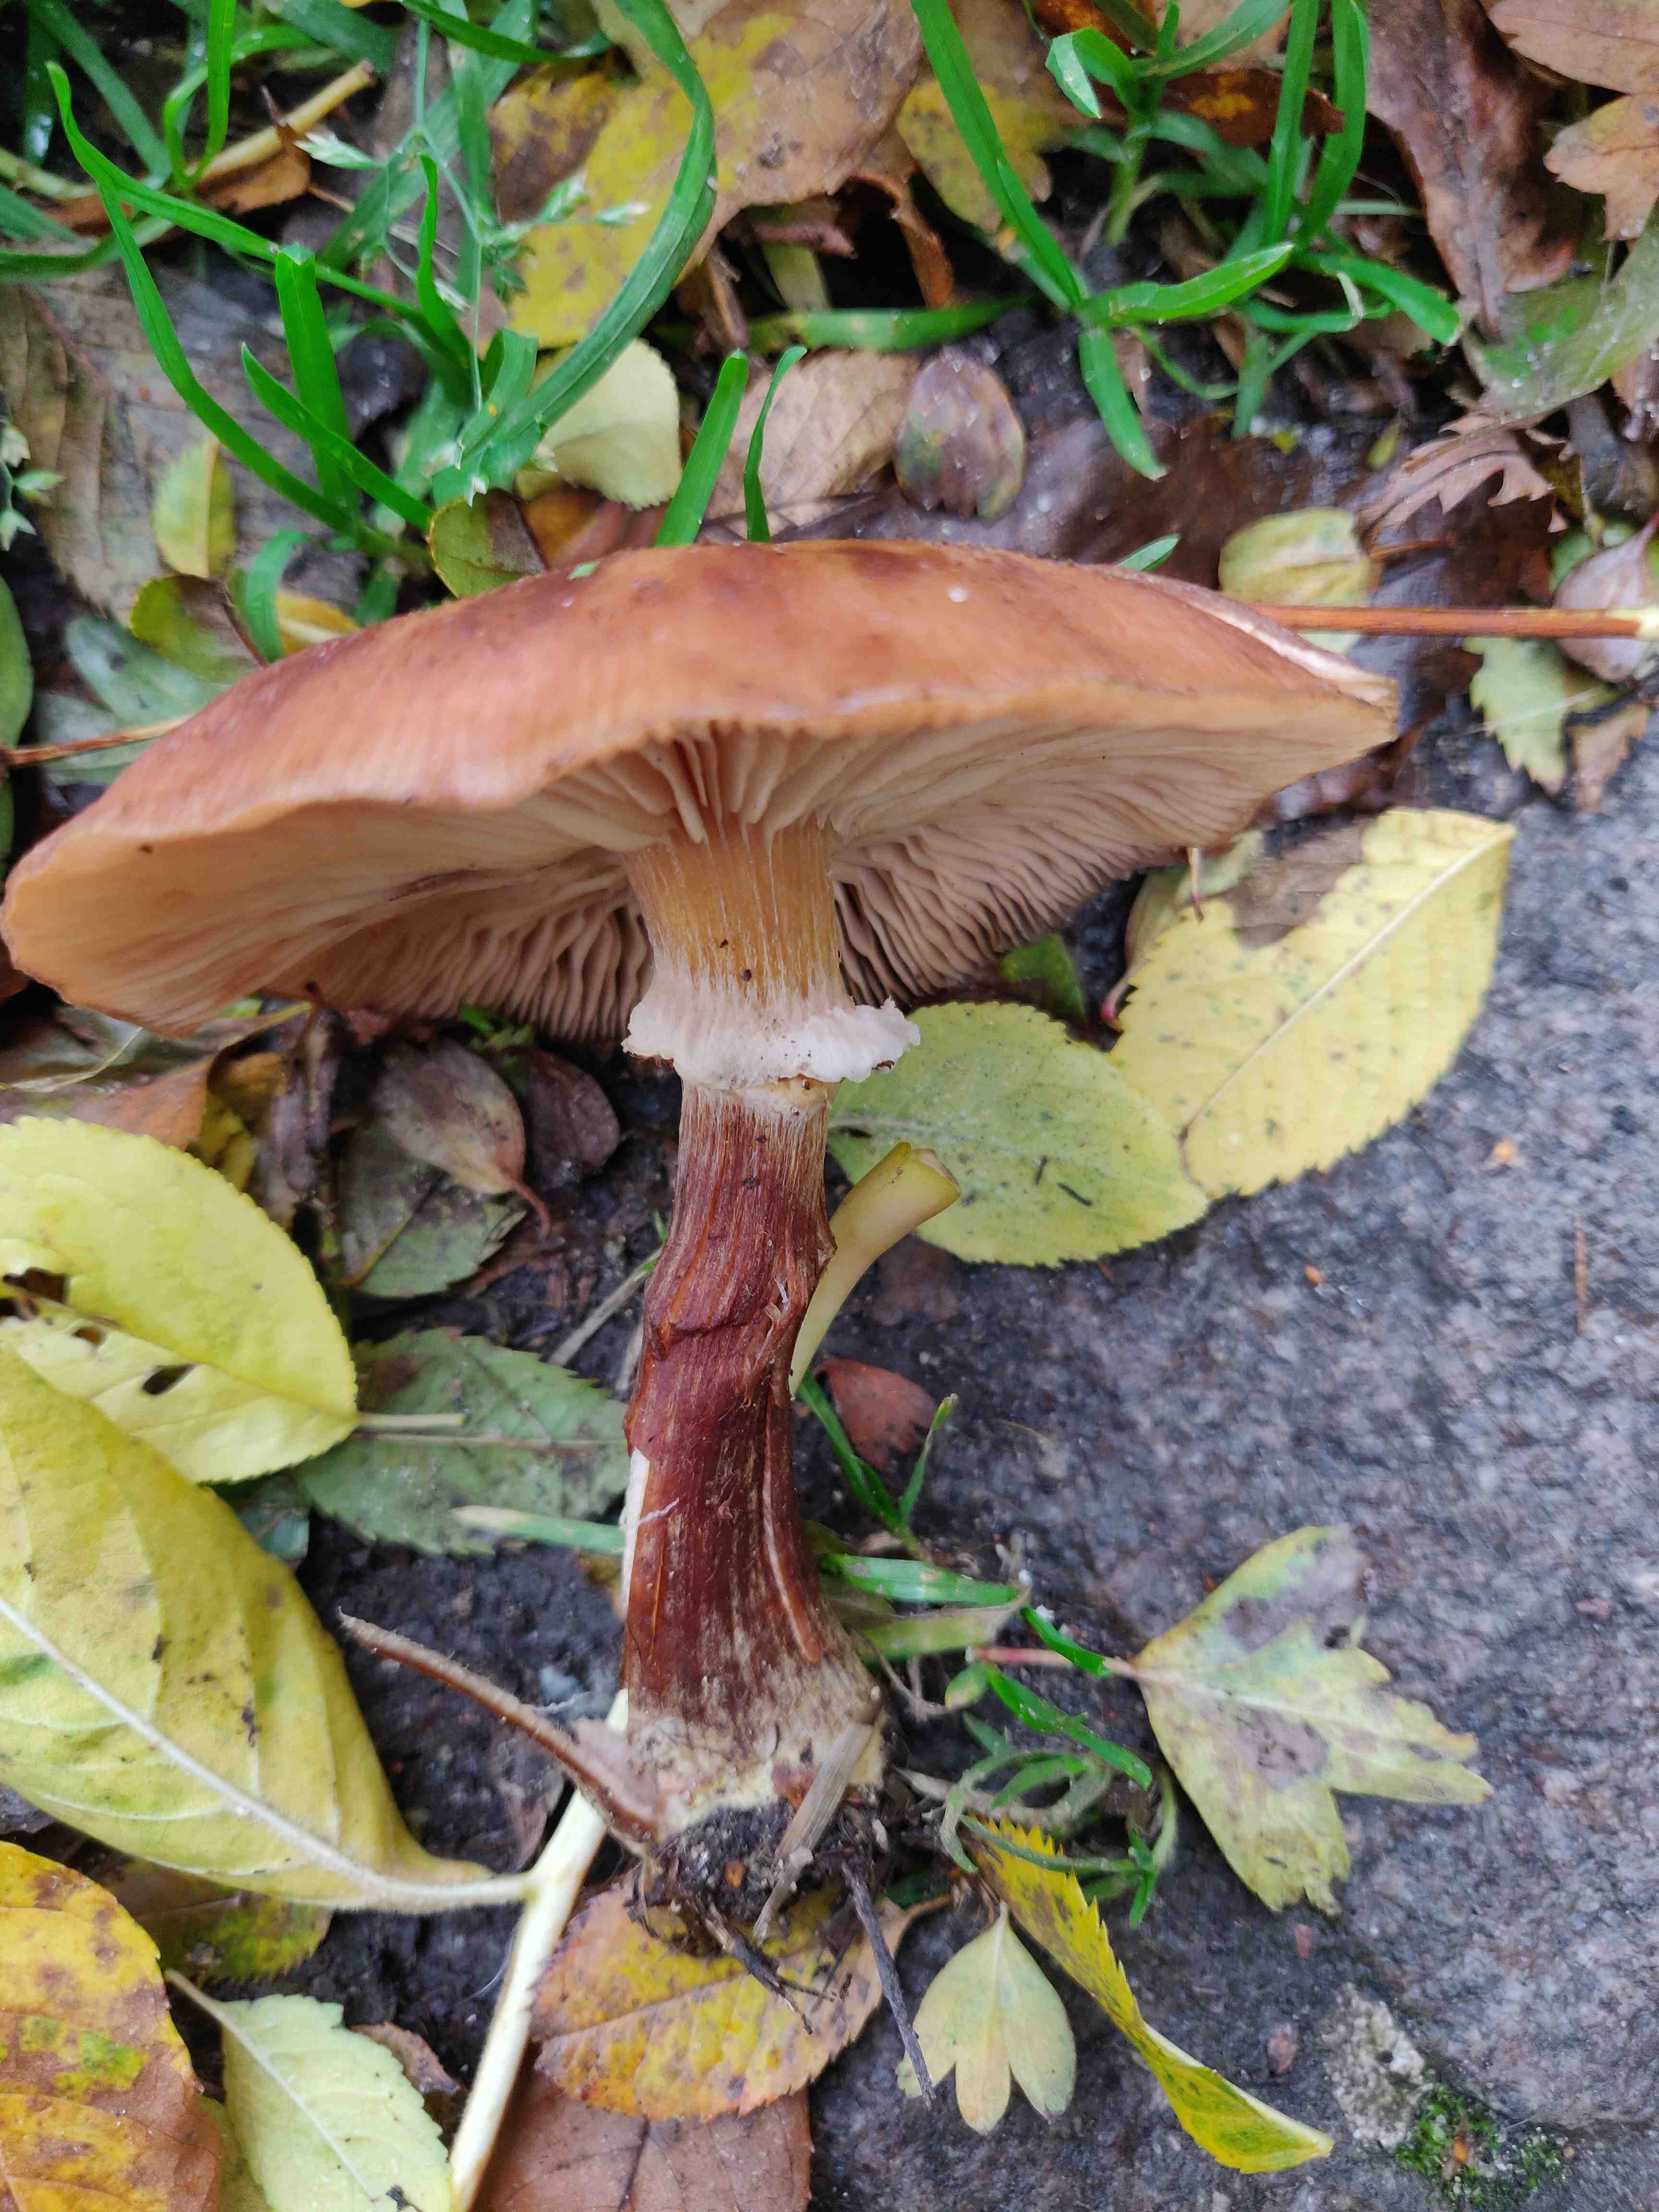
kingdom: Fungi
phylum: Basidiomycota
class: Agaricomycetes
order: Agaricales
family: Physalacriaceae
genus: Armillaria
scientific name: Armillaria
